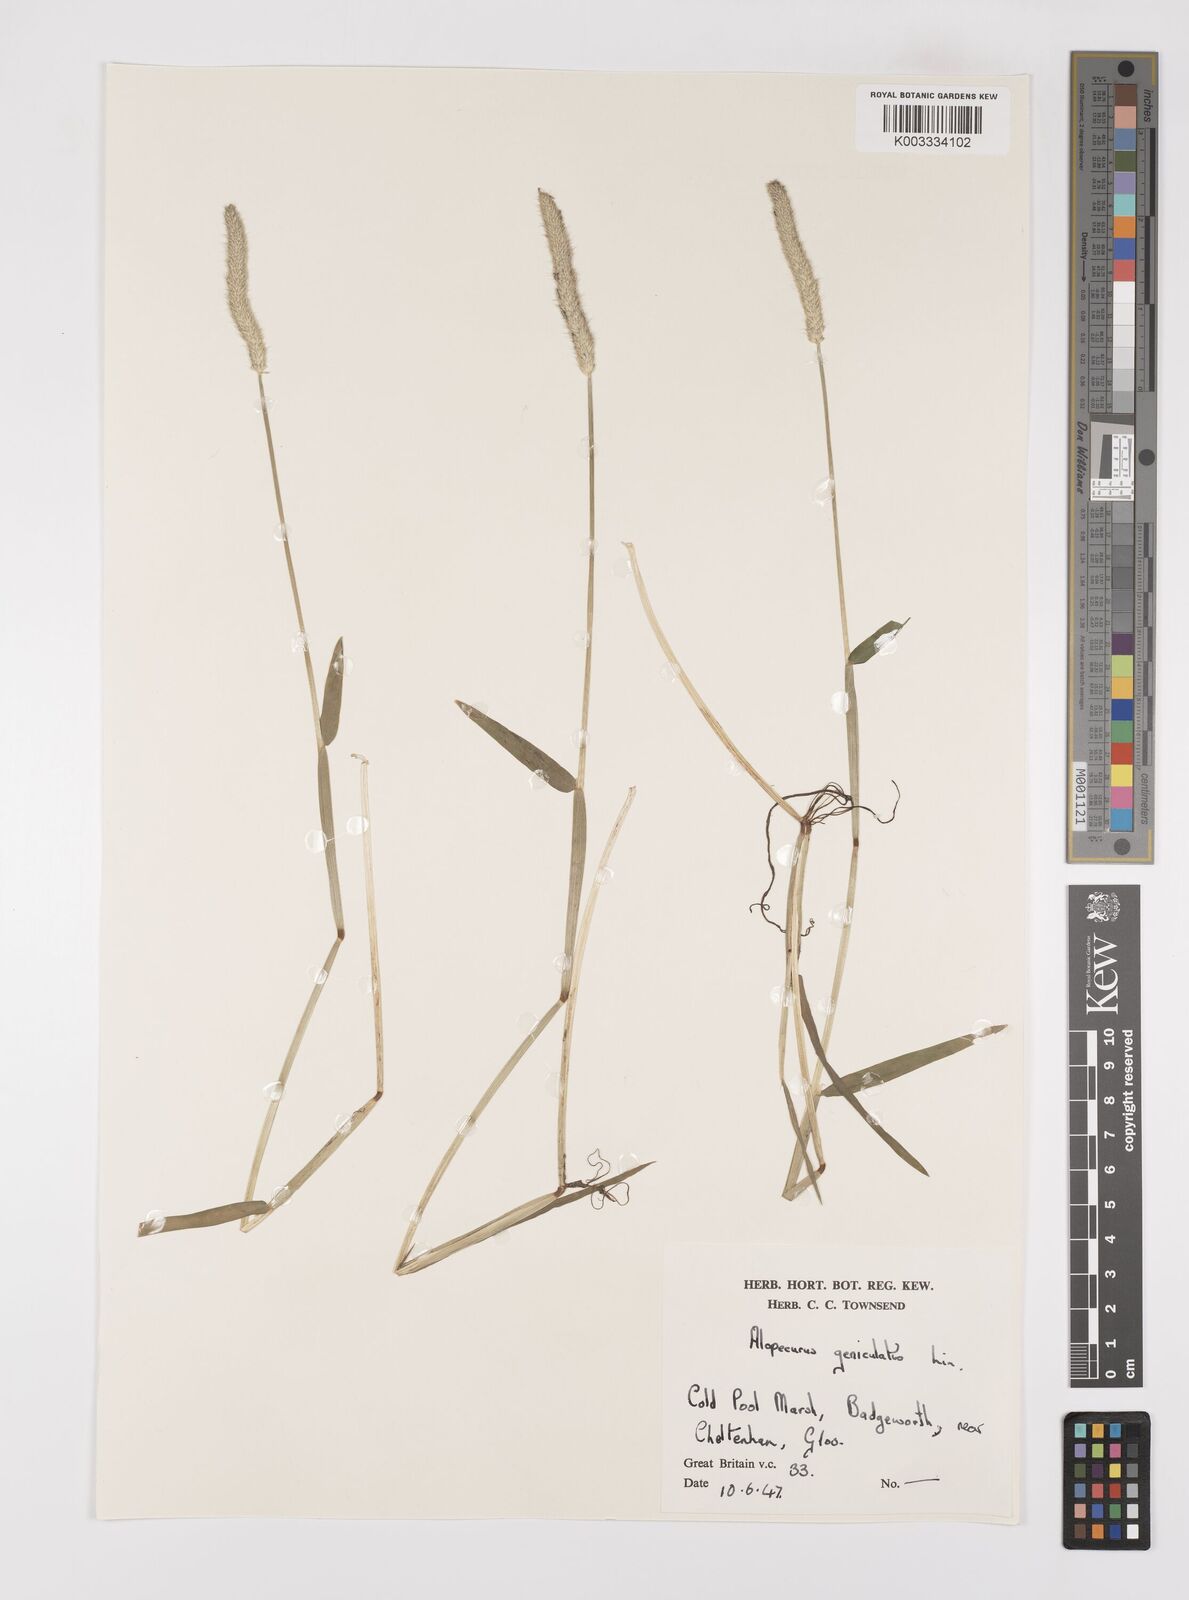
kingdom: Plantae
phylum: Tracheophyta
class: Liliopsida
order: Poales
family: Poaceae
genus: Alopecurus
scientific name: Alopecurus geniculatus
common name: Water foxtail
